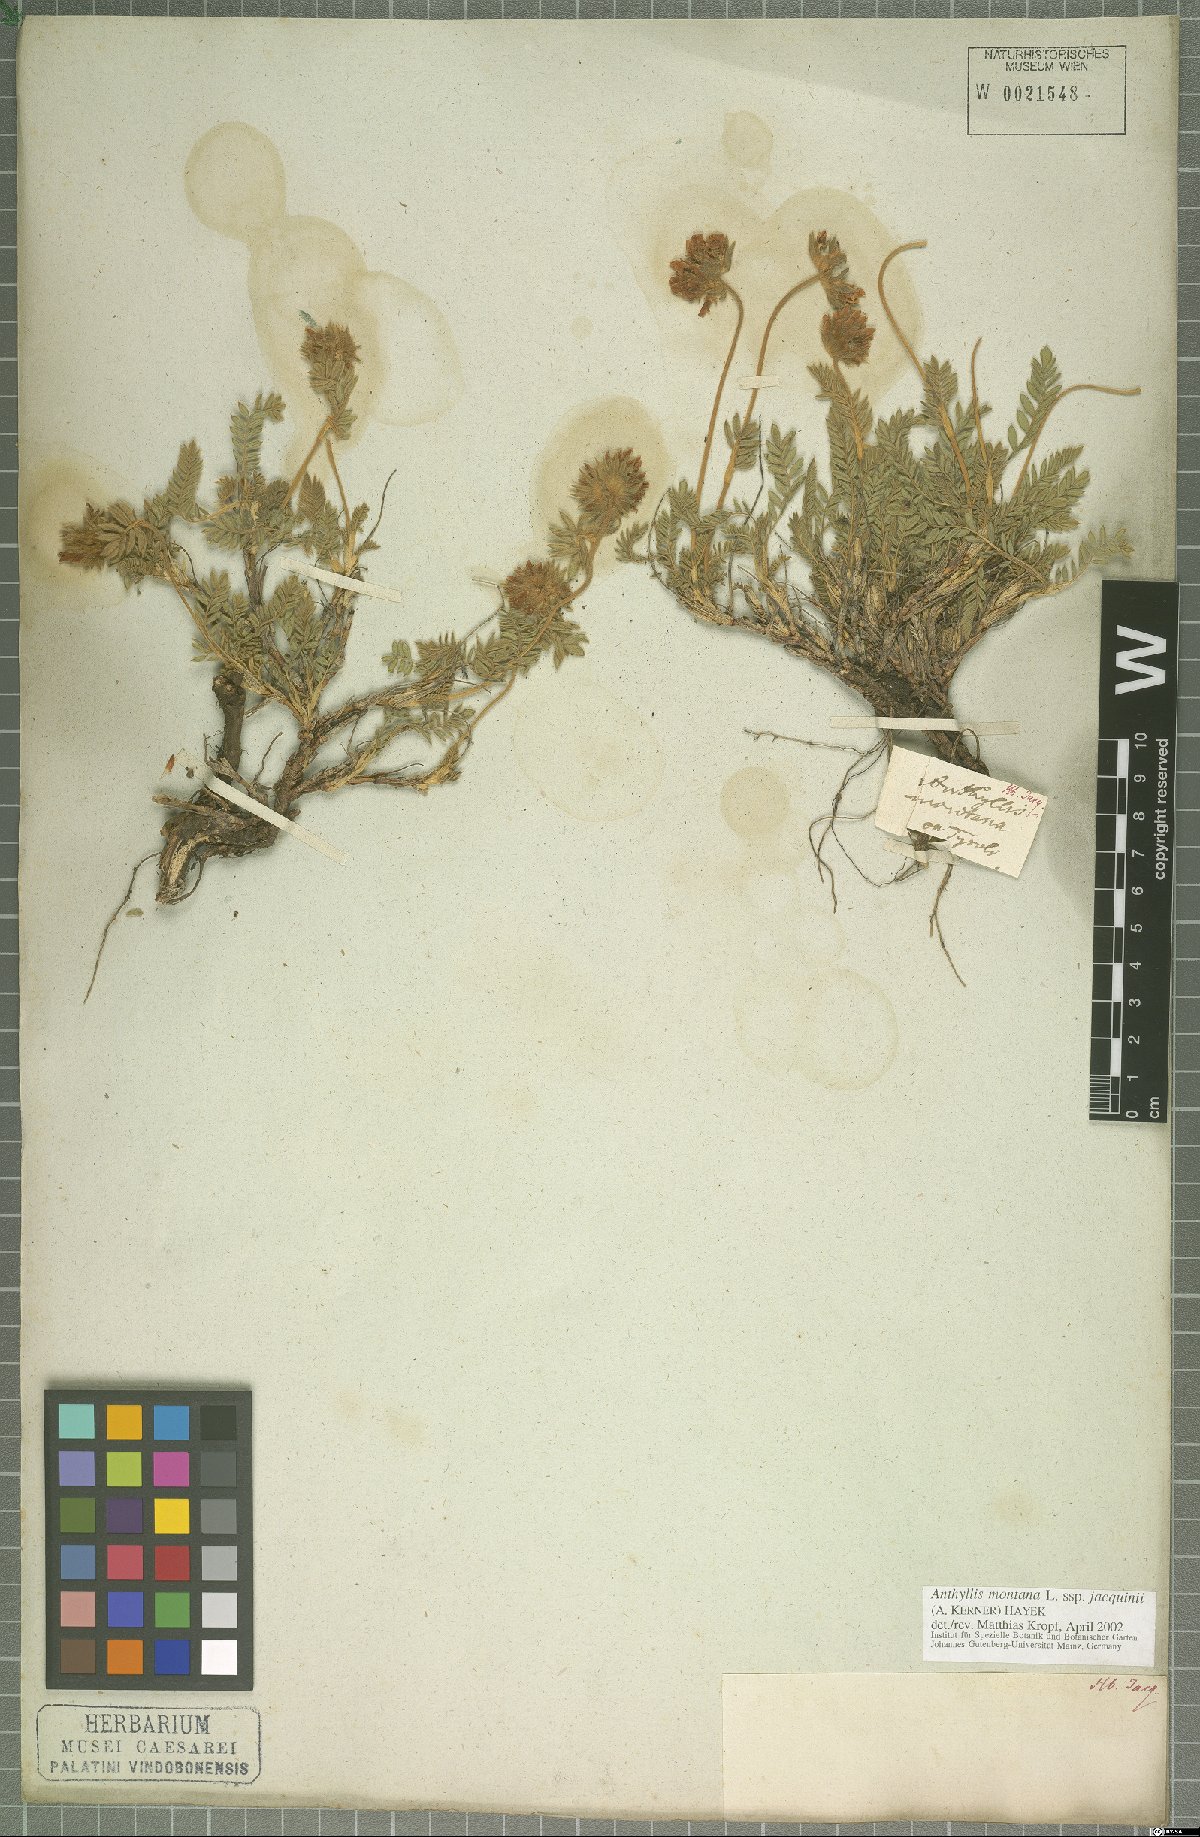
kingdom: Plantae
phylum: Tracheophyta
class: Magnoliopsida
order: Fabales
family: Fabaceae
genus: Anthyllis
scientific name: Anthyllis montana
